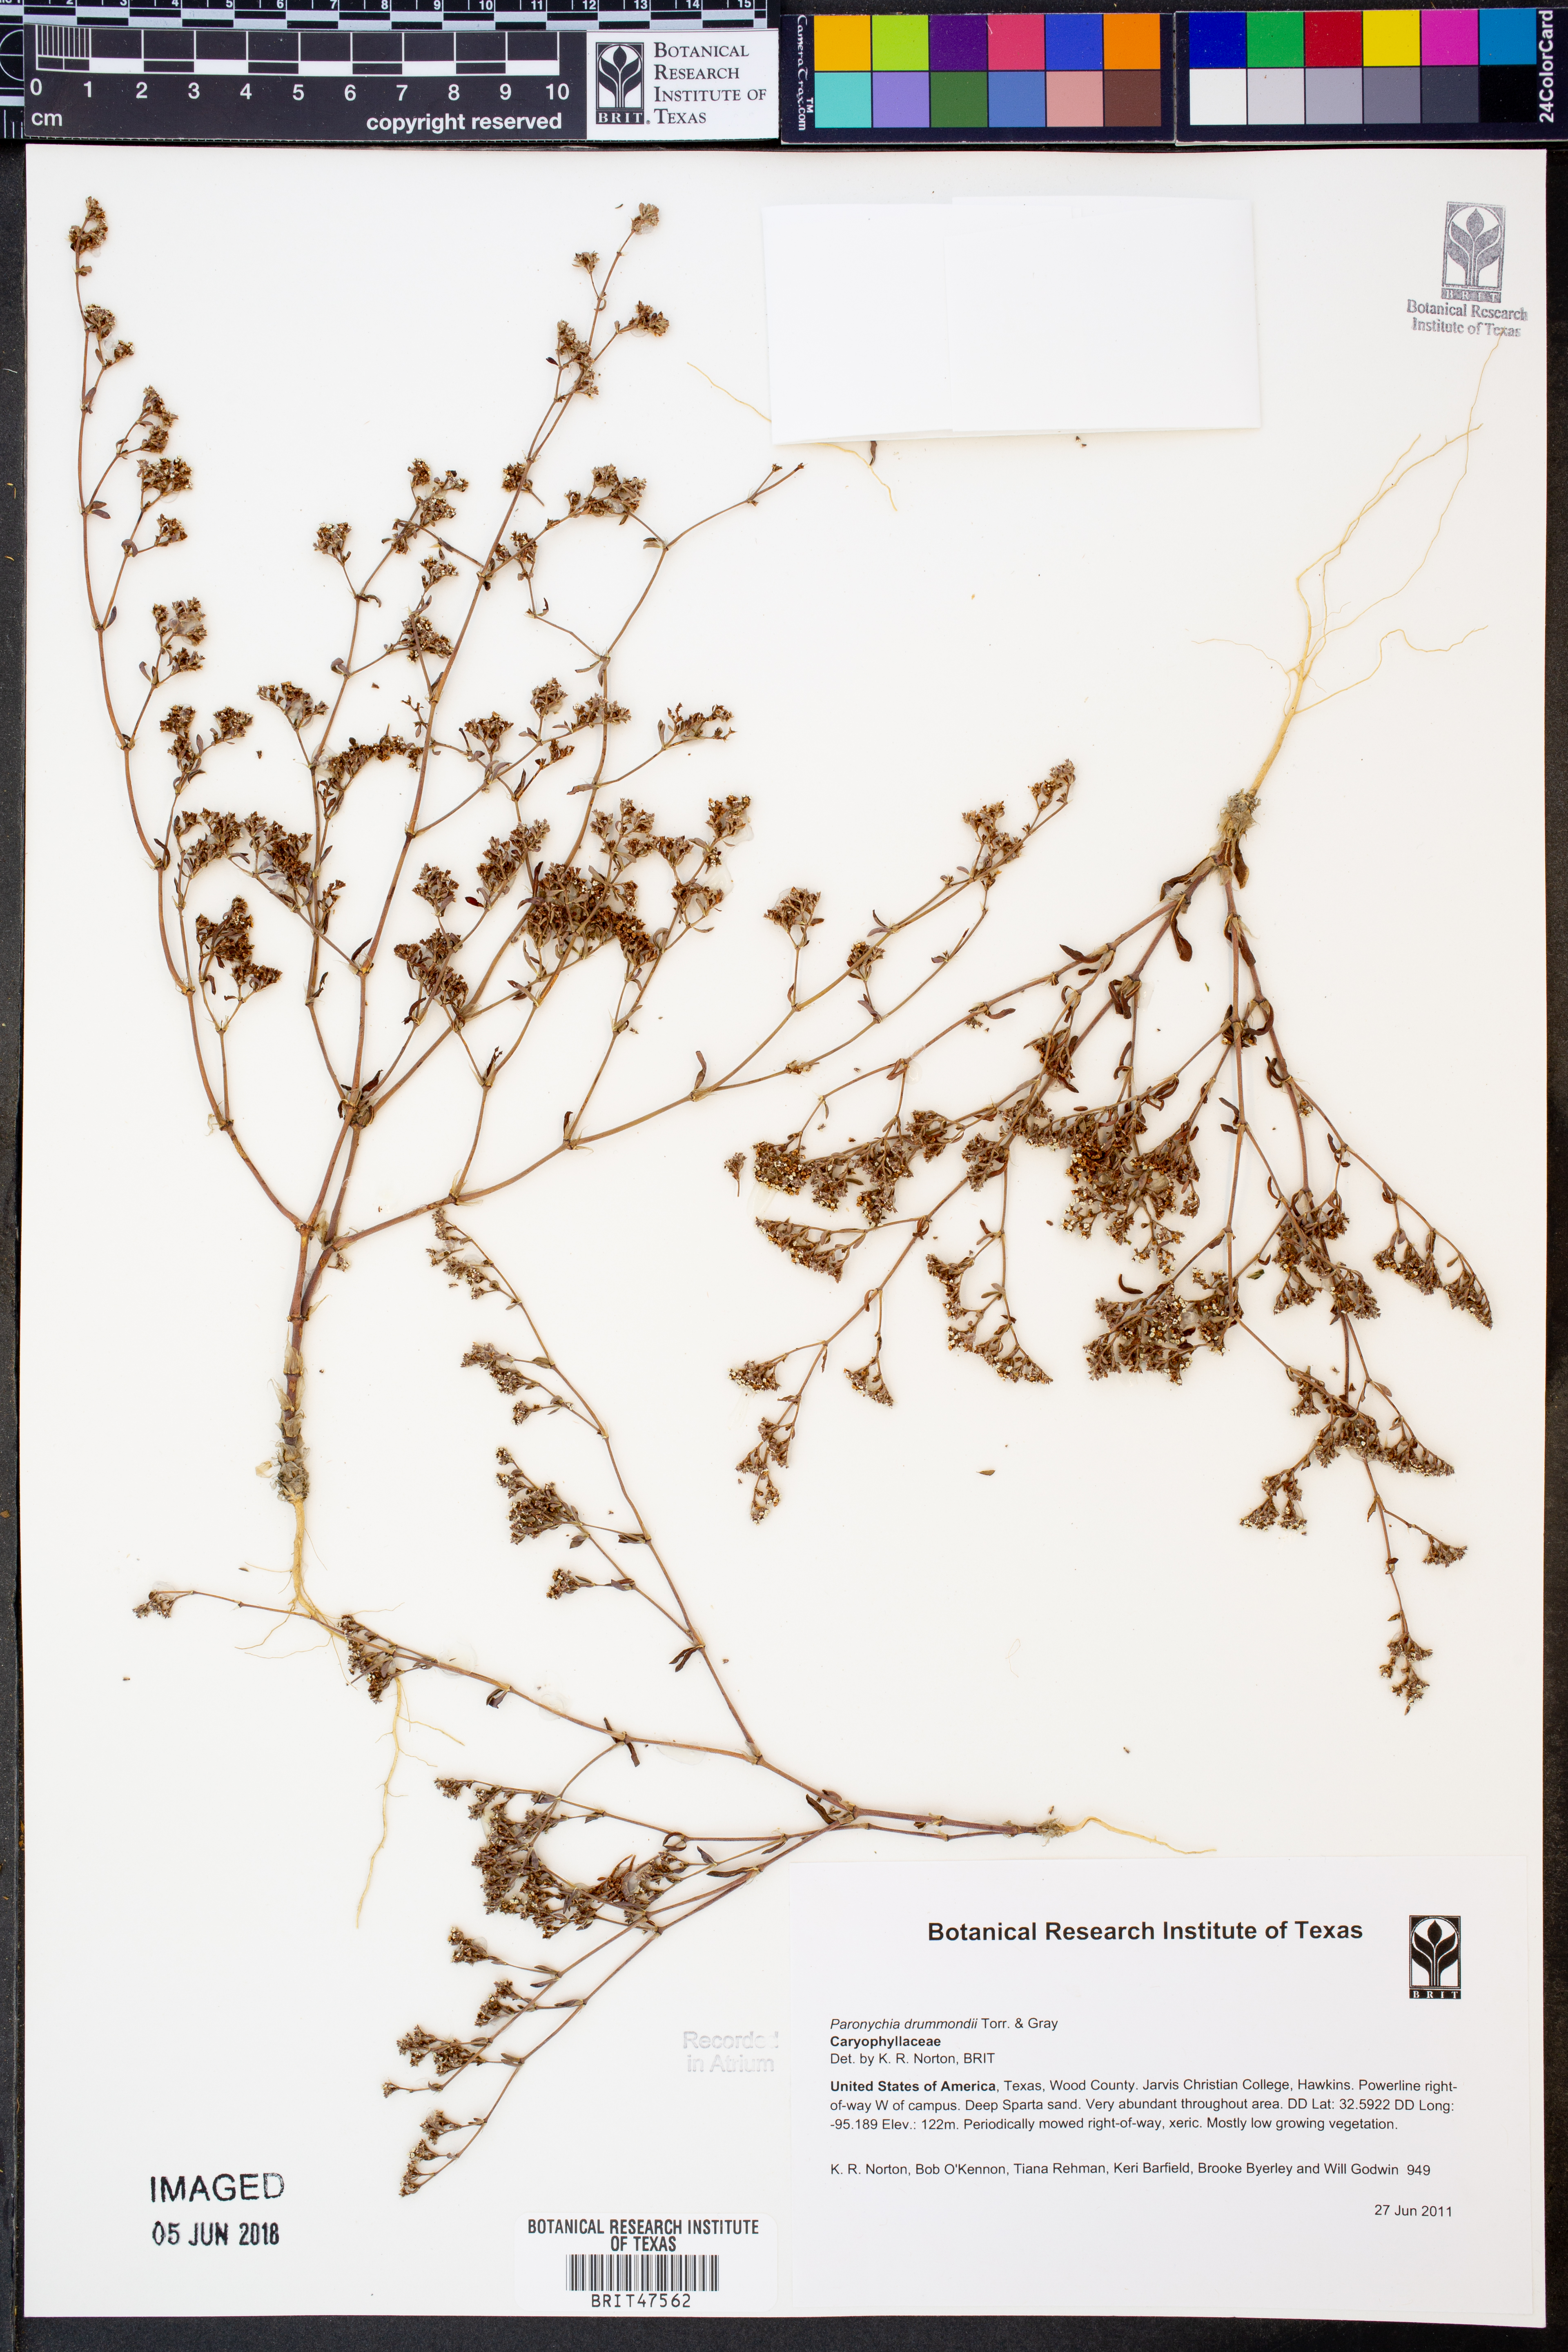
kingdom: Plantae
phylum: Tracheophyta
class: Magnoliopsida
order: Caryophyllales
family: Caryophyllaceae
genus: Paronychia
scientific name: Paronychia drummondii
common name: Drummond's nailwort
